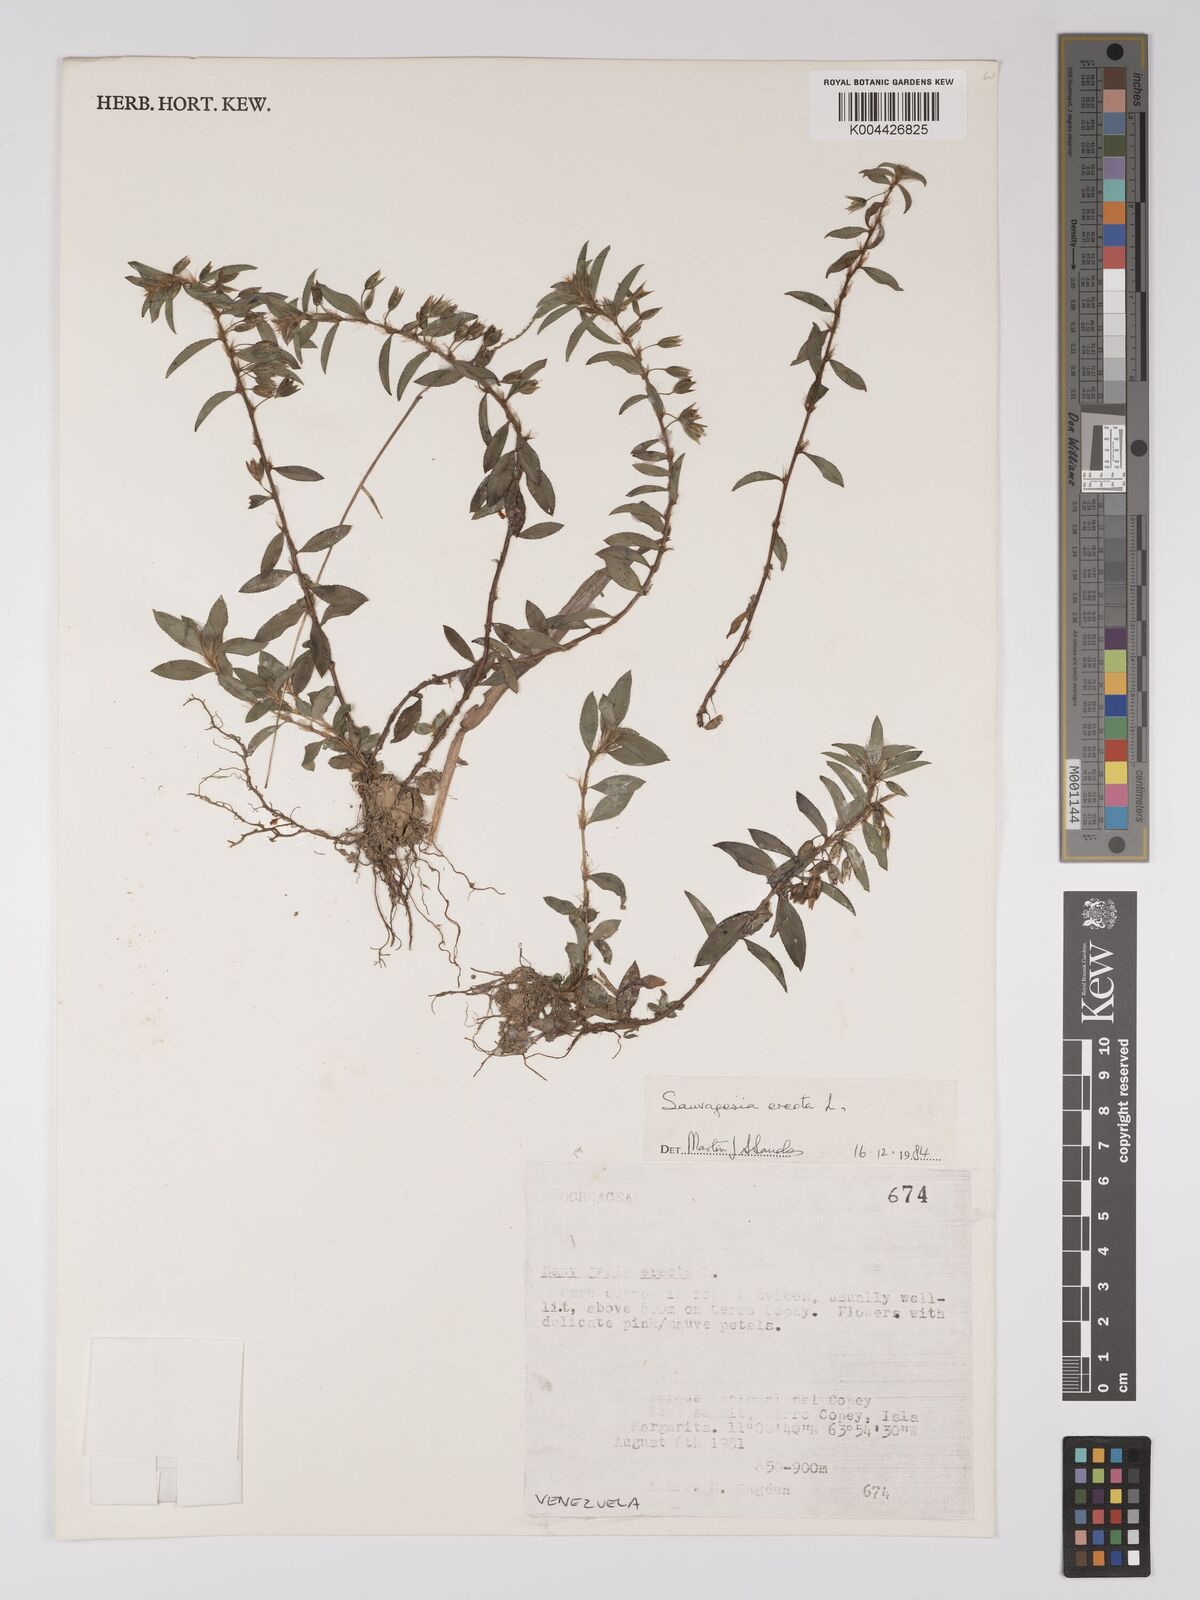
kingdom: Plantae
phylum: Tracheophyta
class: Magnoliopsida
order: Malpighiales
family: Ochnaceae
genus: Sauvagesia
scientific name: Sauvagesia erecta
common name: Creole tea
